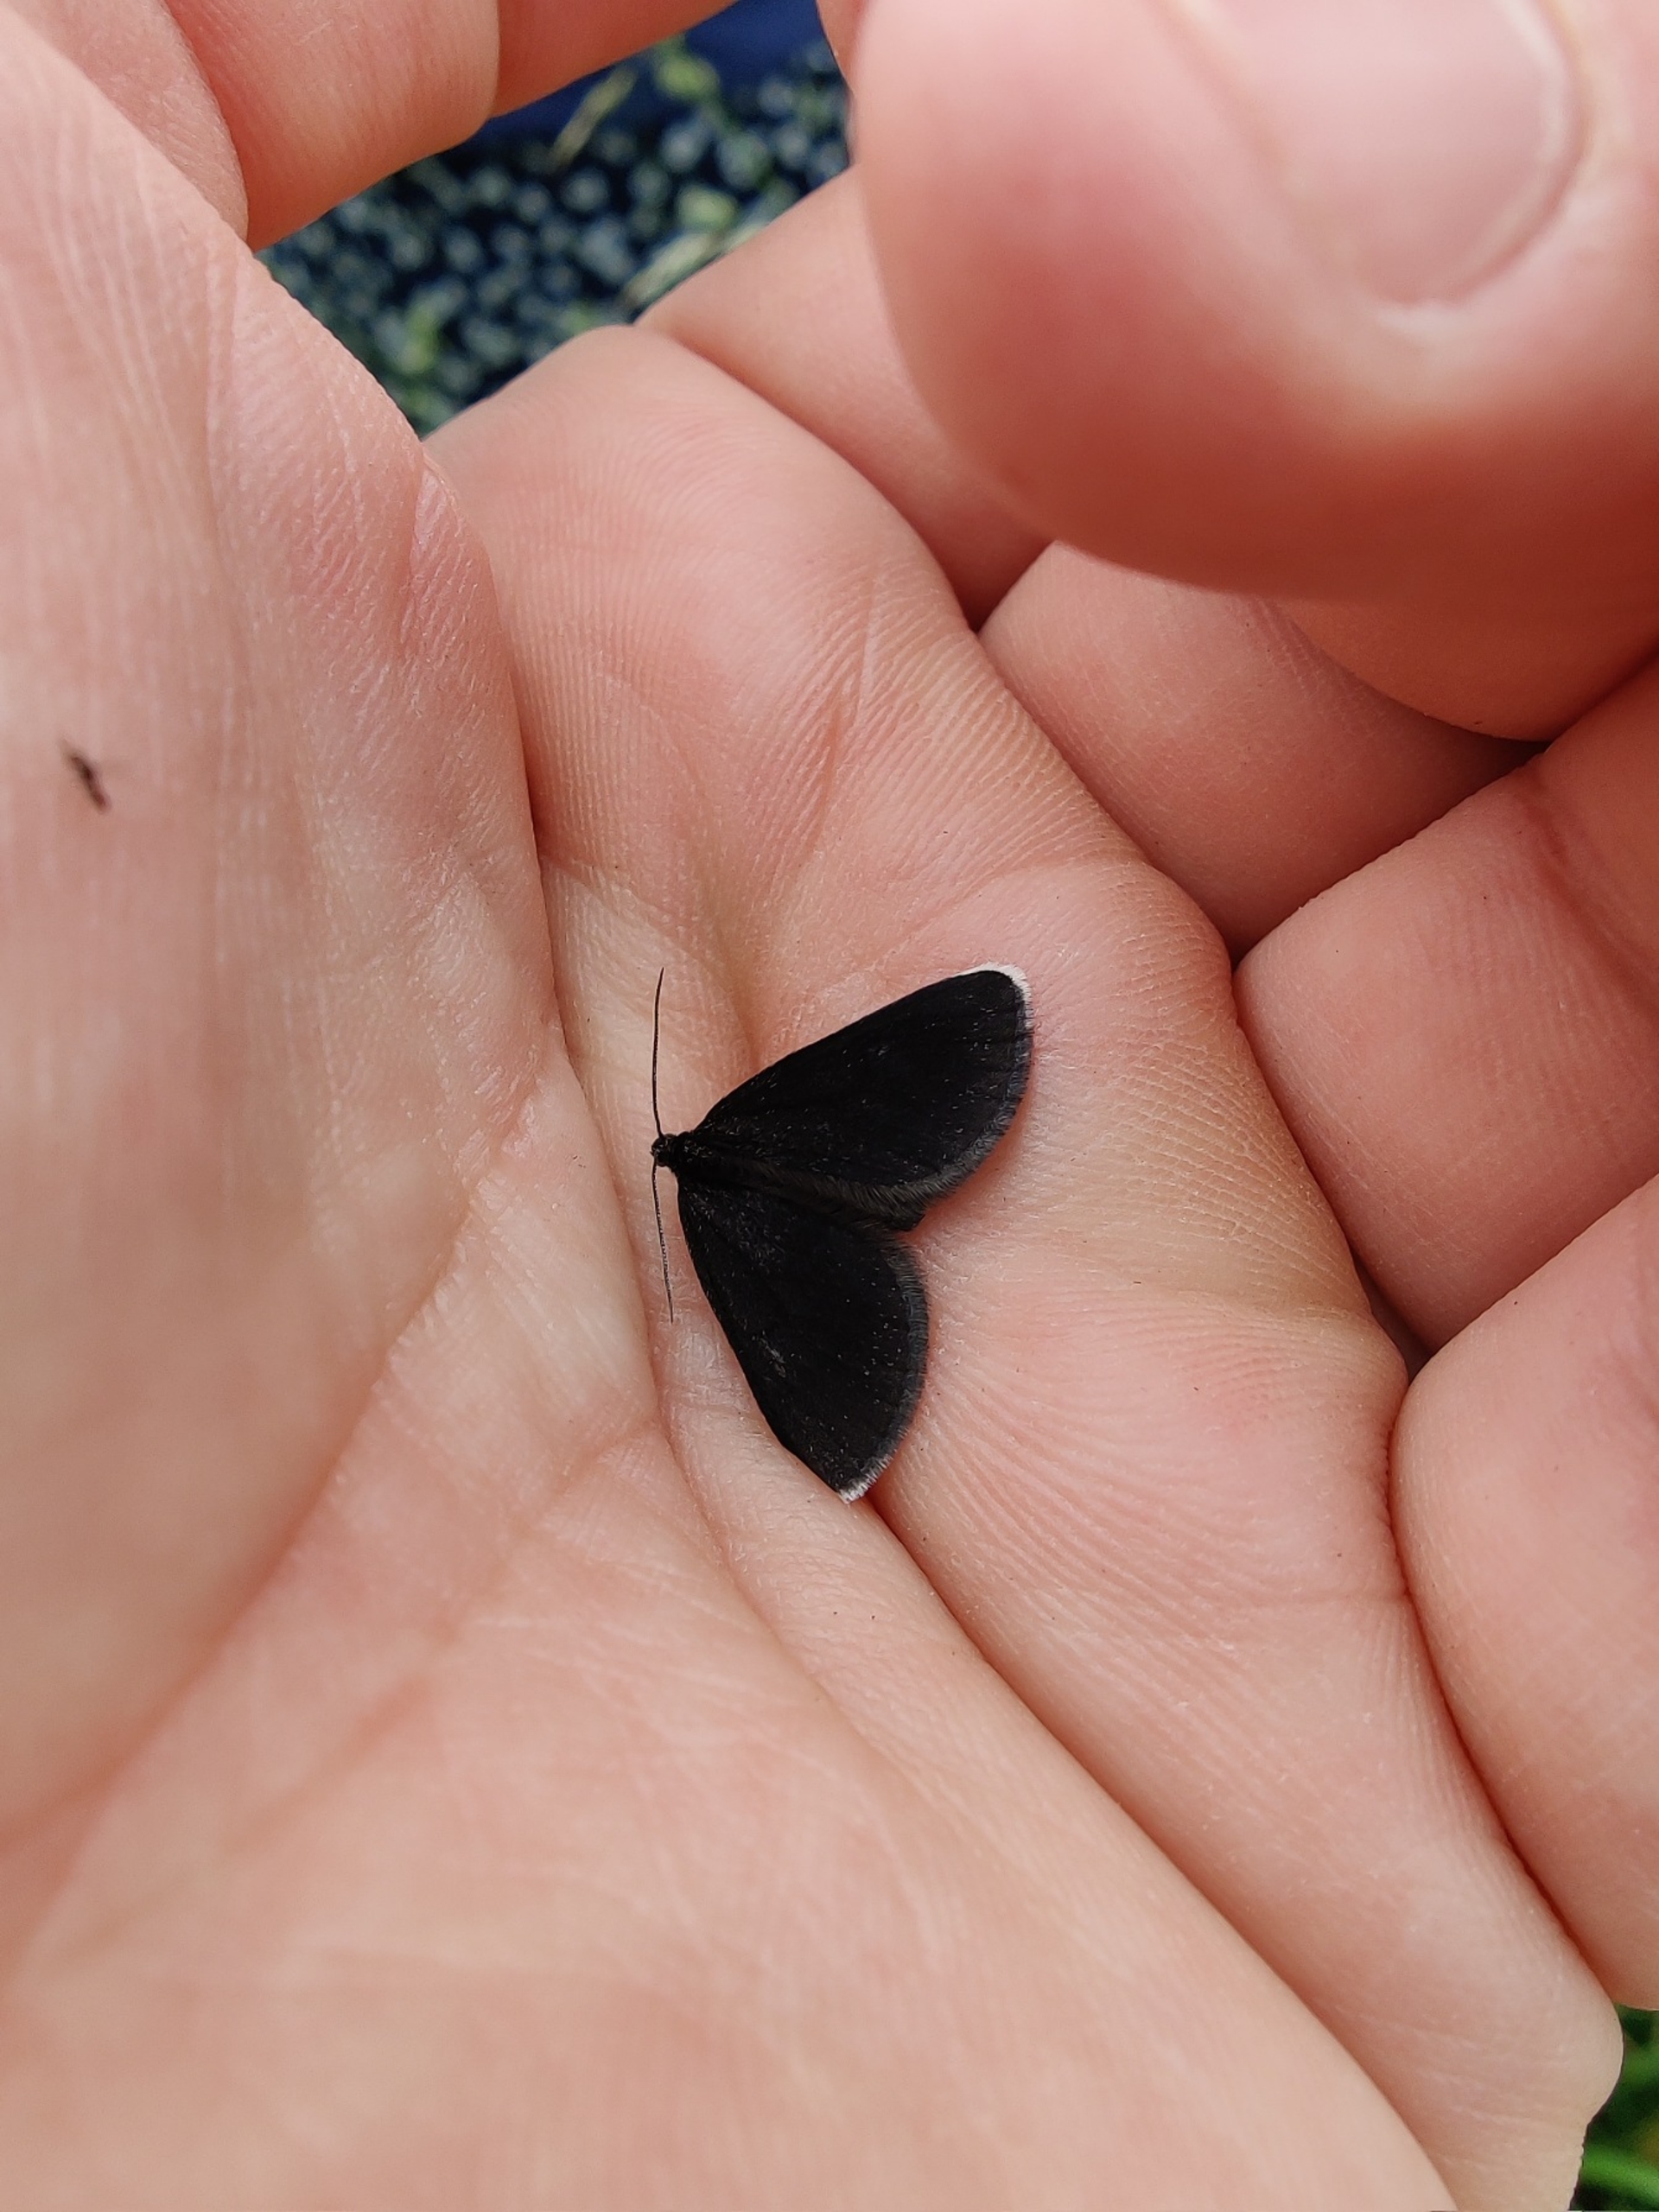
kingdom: Animalia
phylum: Arthropoda
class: Insecta
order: Lepidoptera
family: Geometridae
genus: Odezia
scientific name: Odezia atrata
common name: Sort måler
